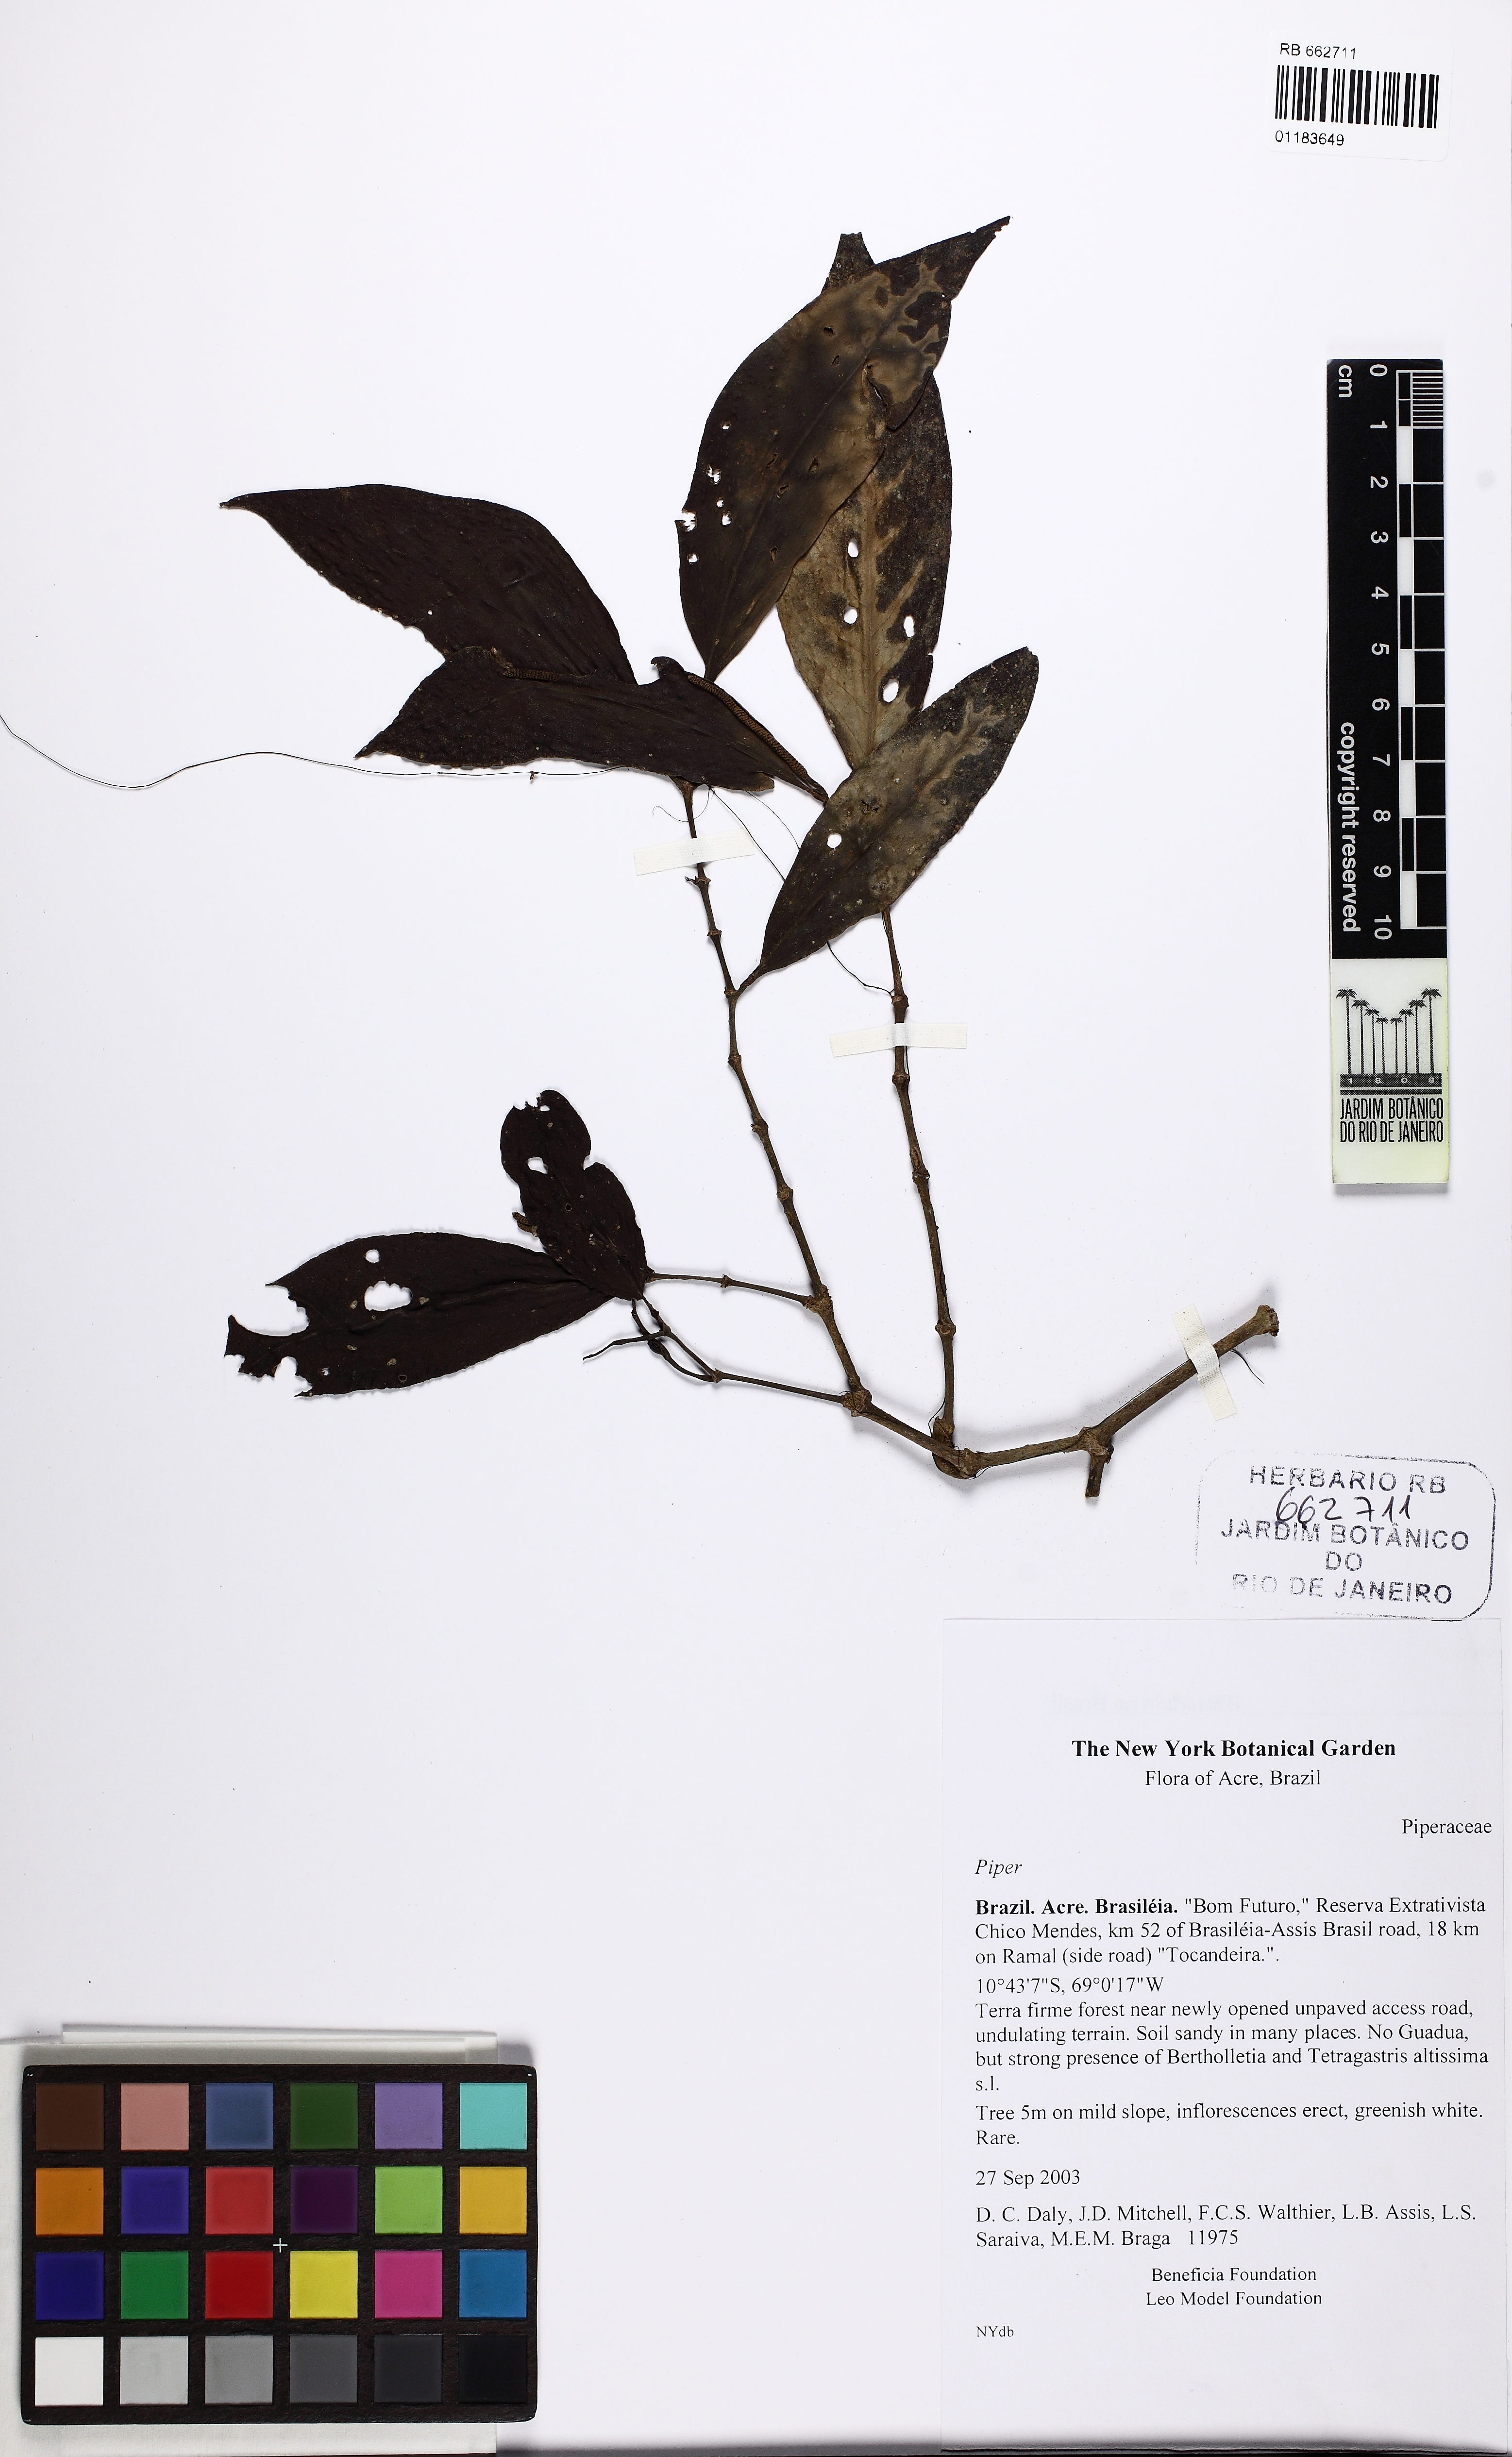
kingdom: Plantae
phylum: Tracheophyta
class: Magnoliopsida
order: Piperales
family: Piperaceae
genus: Piper
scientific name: Piper
